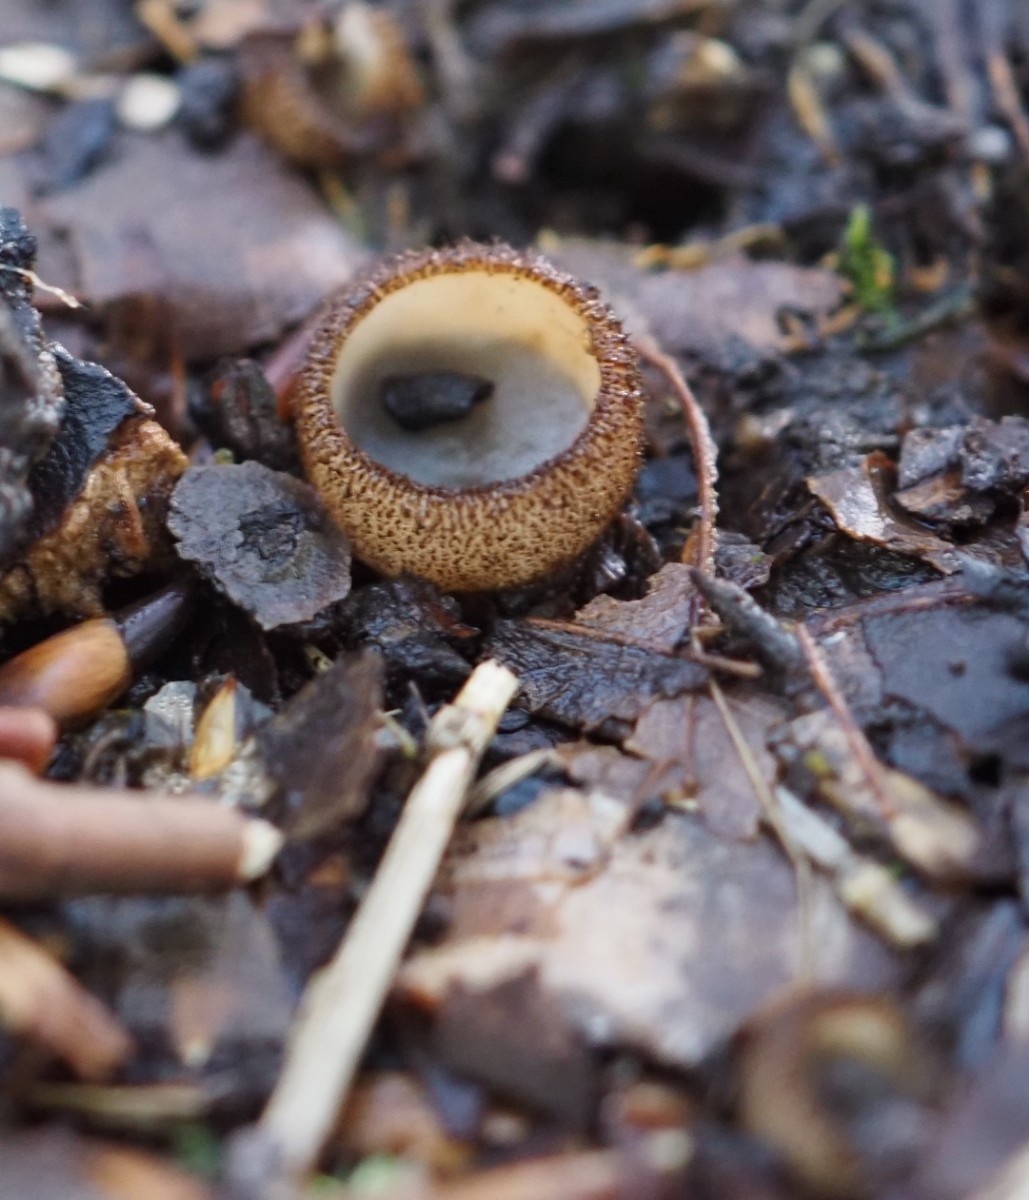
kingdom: Fungi
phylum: Ascomycota
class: Pezizomycetes
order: Pezizales
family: Pyronemataceae
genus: Humaria
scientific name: Humaria hemisphaerica
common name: halvkugleformet børstebæger
